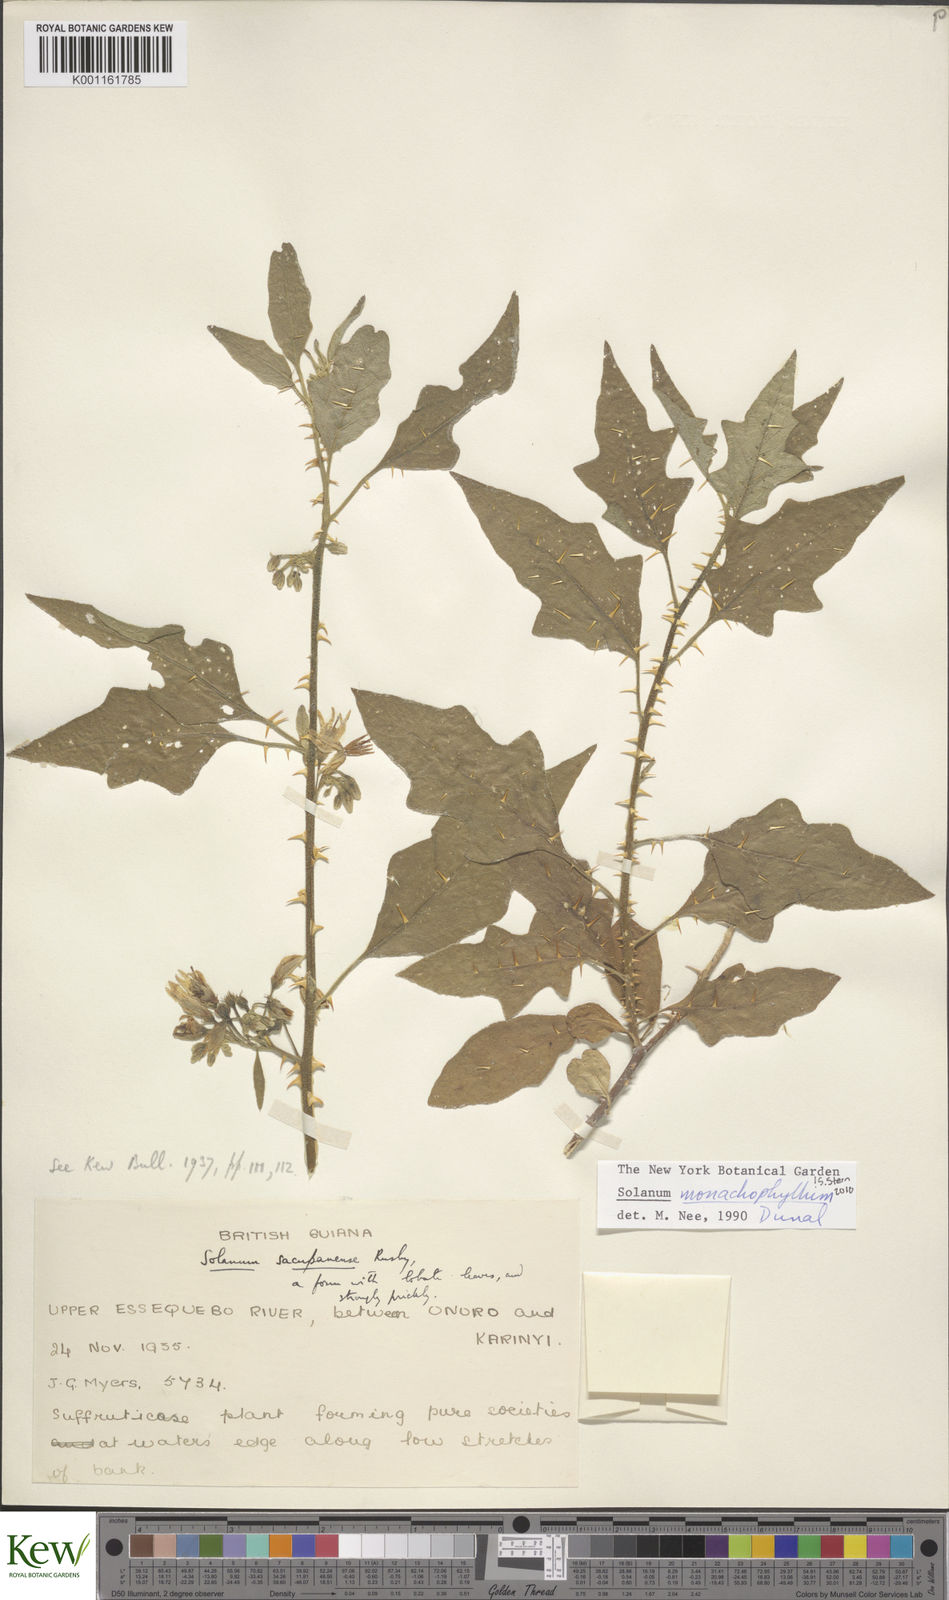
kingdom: Plantae
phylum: Tracheophyta
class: Magnoliopsida
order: Solanales
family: Solanaceae
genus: Solanum
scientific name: Solanum monachophyllum
